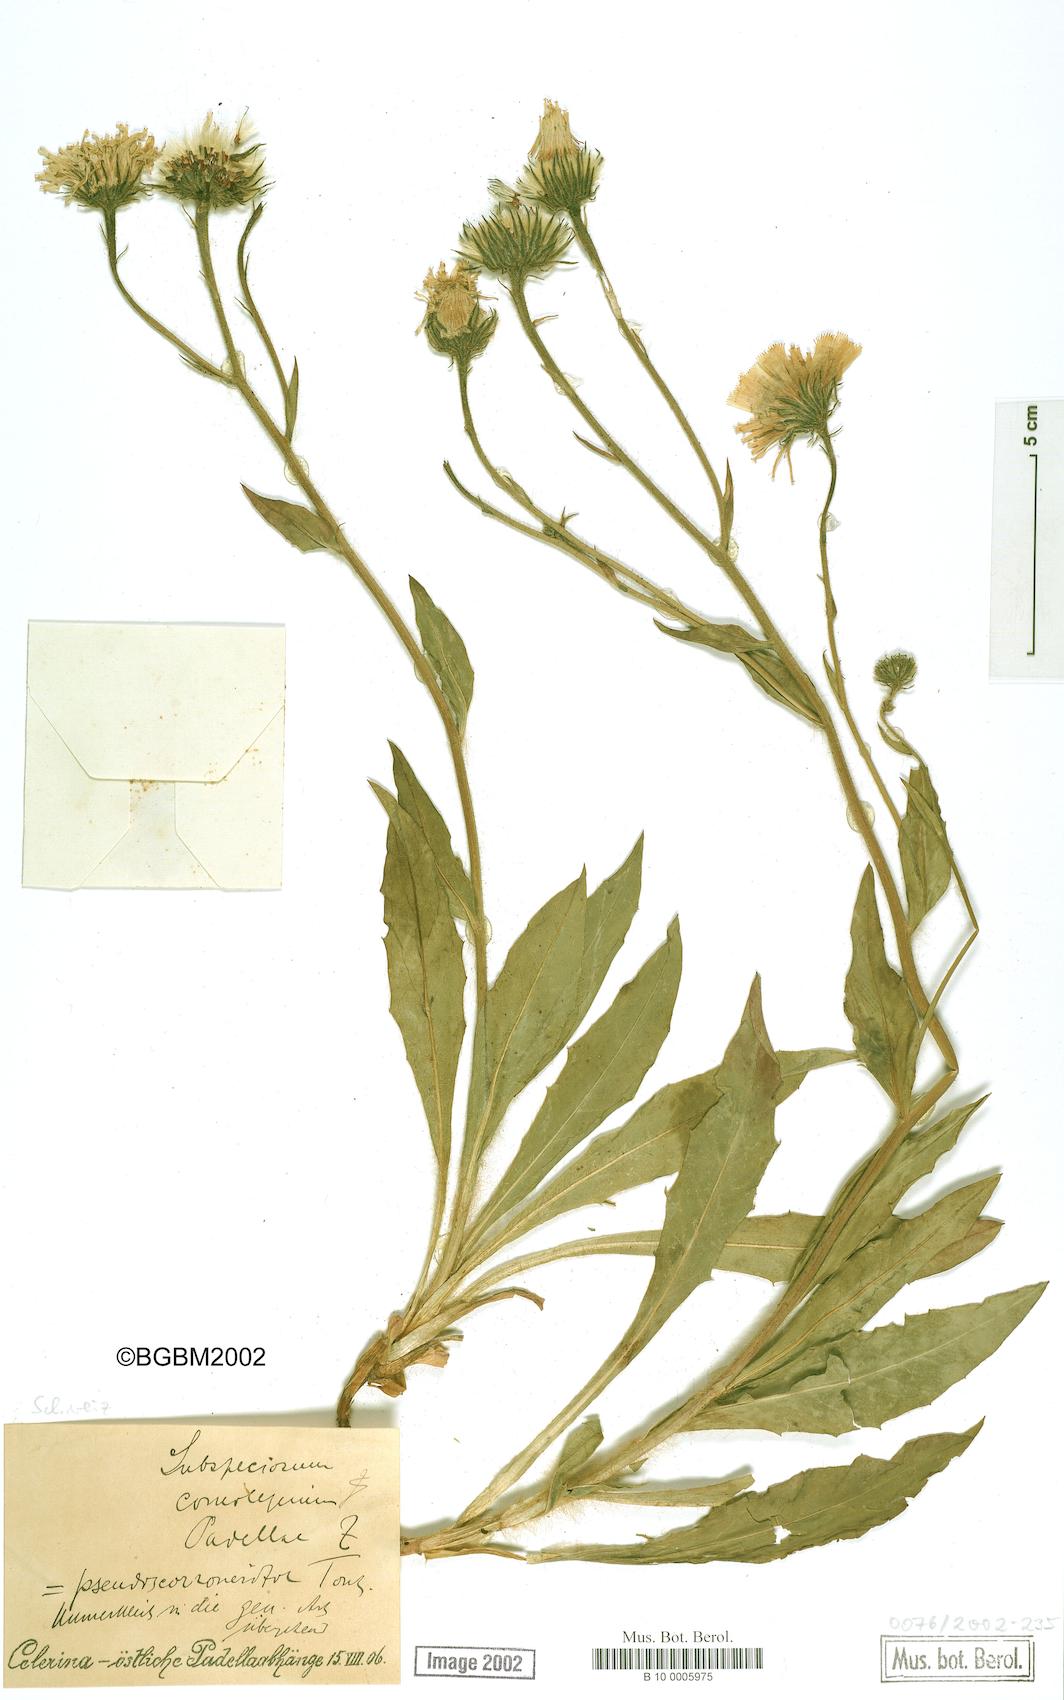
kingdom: Plantae
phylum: Tracheophyta
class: Magnoliopsida
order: Asterales
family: Asteraceae
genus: Hieracium
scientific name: Hieracium subspeciosum
